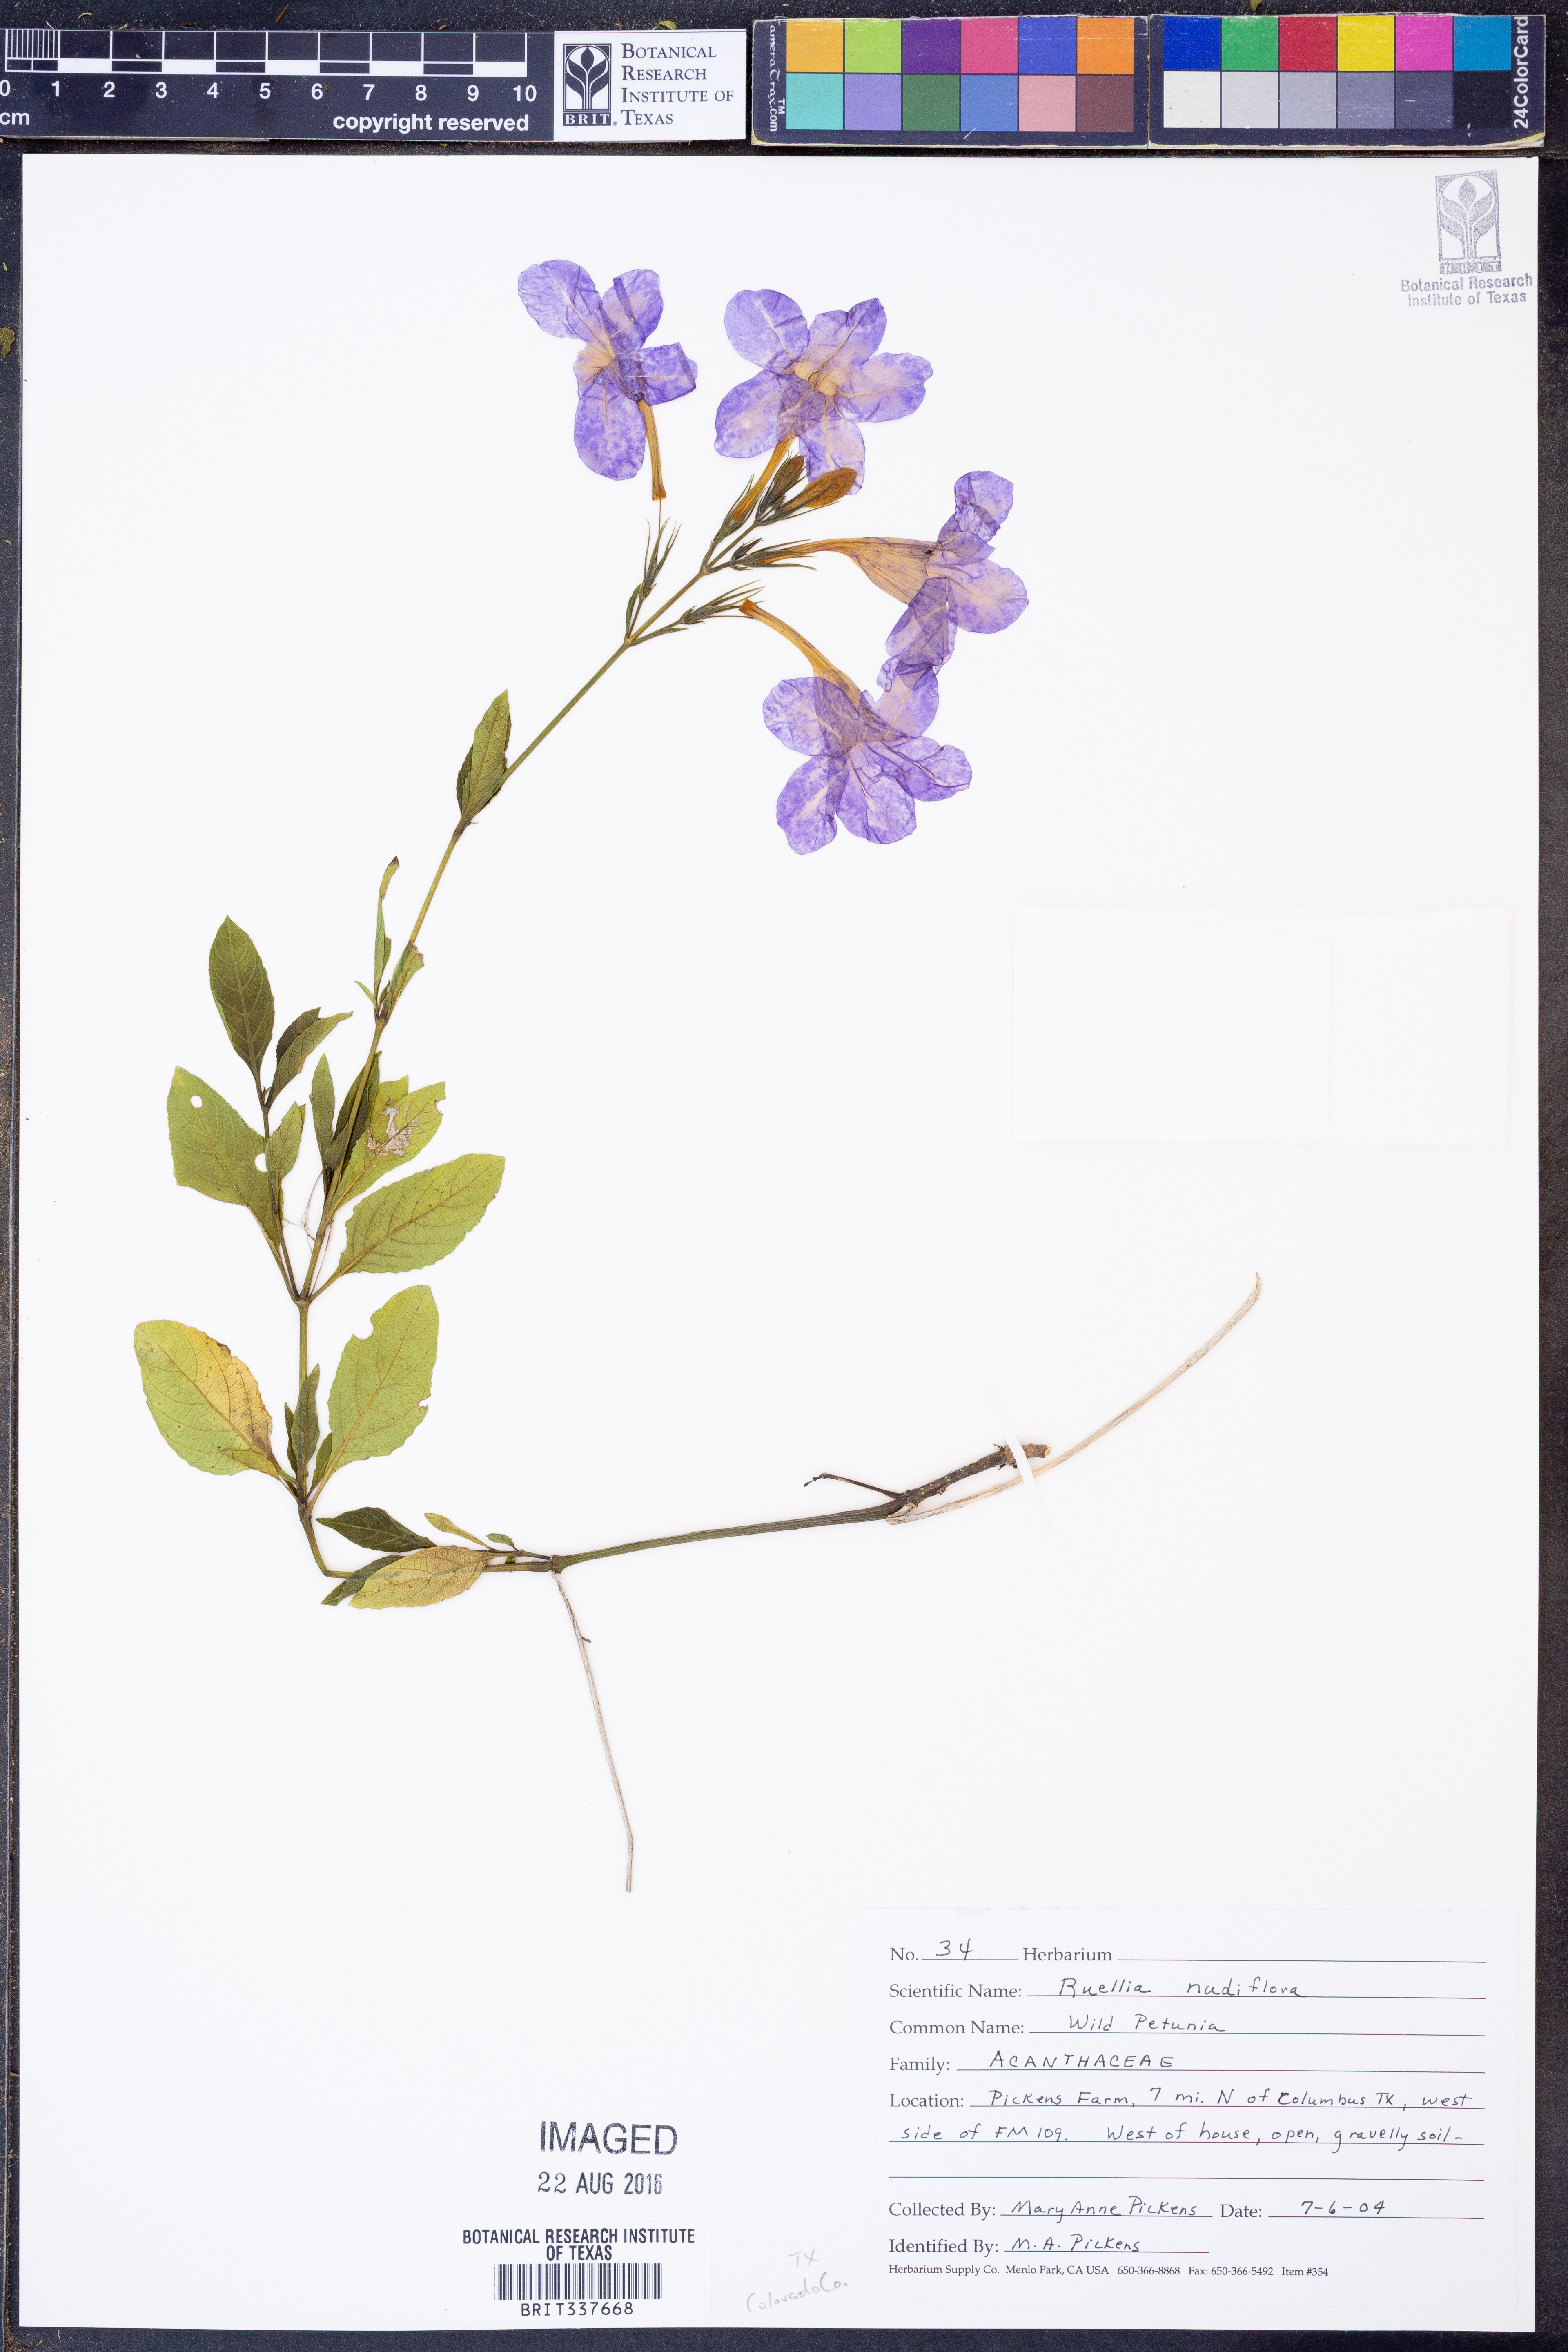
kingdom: Plantae
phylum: Tracheophyta
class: Magnoliopsida
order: Lamiales
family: Acanthaceae
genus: Ruellia
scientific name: Ruellia ciliatiflora
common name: Hairyflower wild petunia
